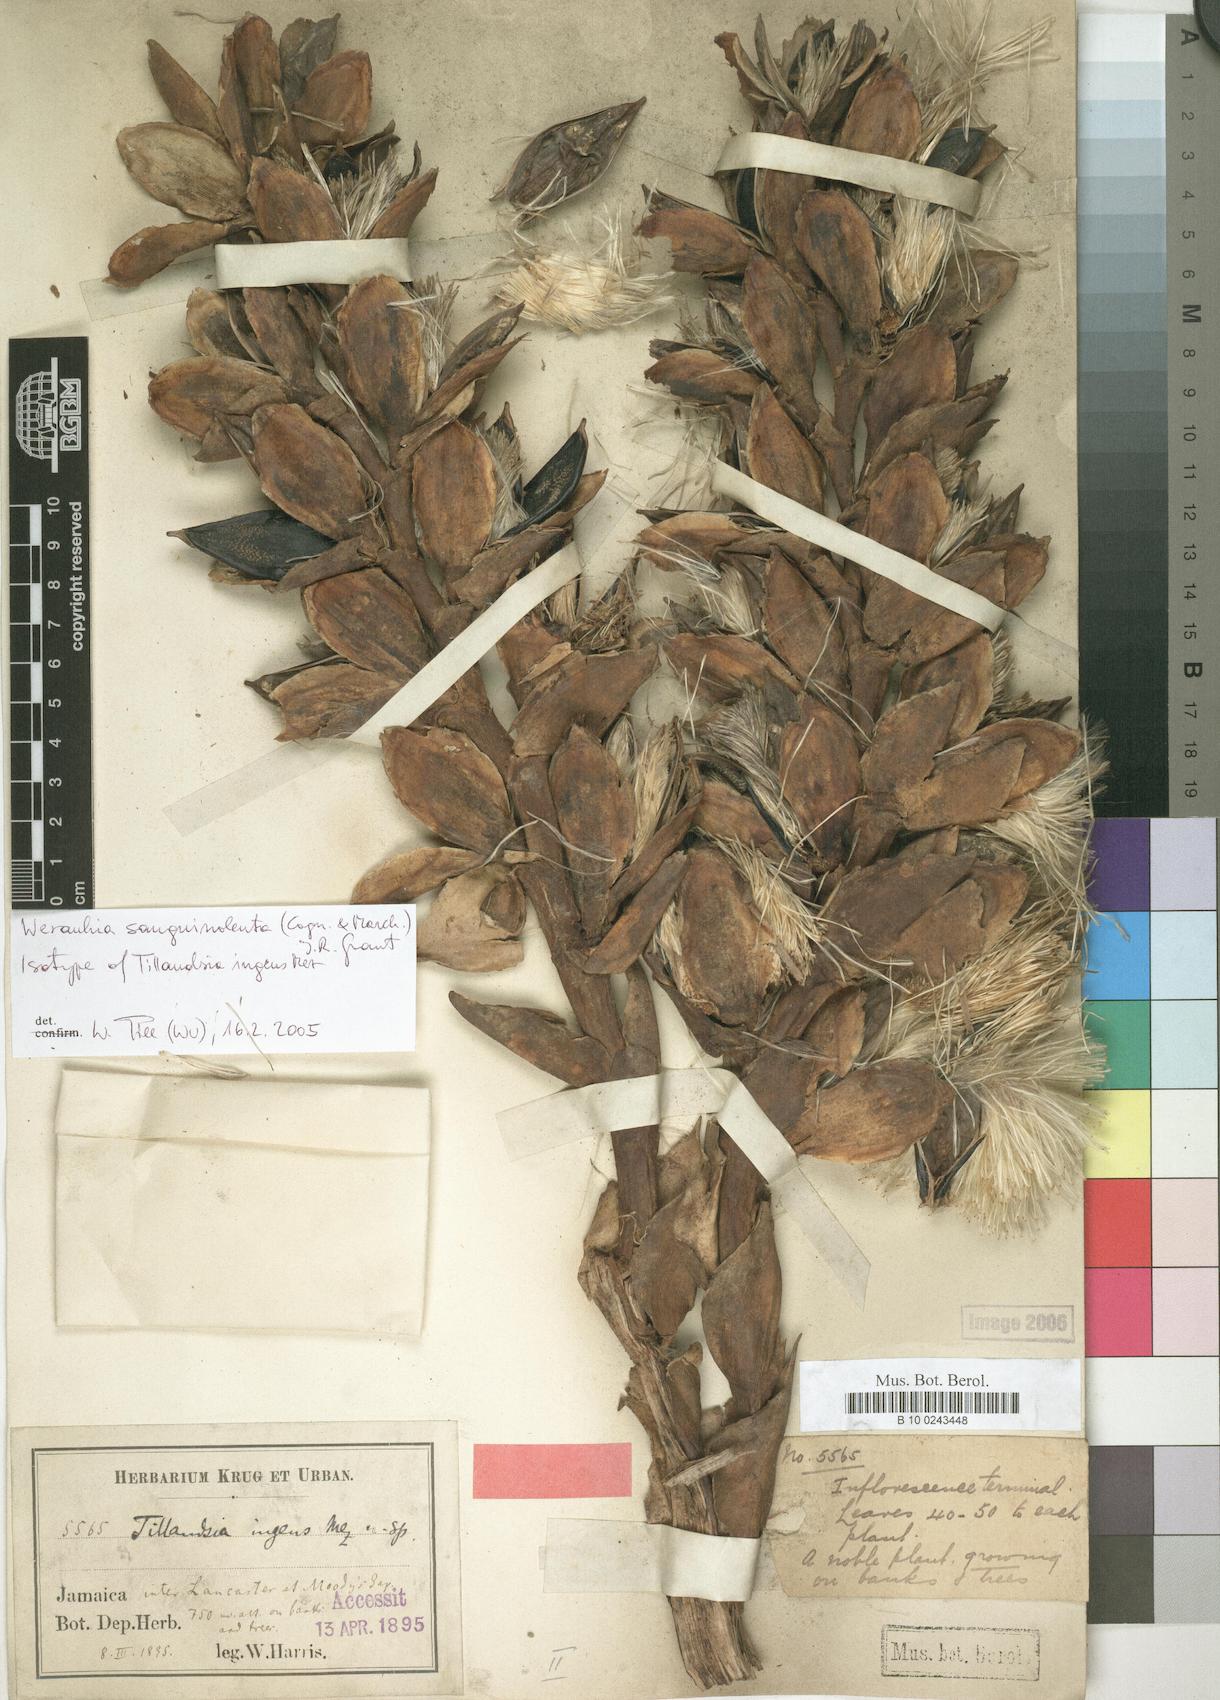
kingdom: Plantae
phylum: Tracheophyta
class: Liliopsida
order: Poales
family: Bromeliaceae
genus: Werauhia
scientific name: Werauhia sanguinolenta
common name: Bromeliad
